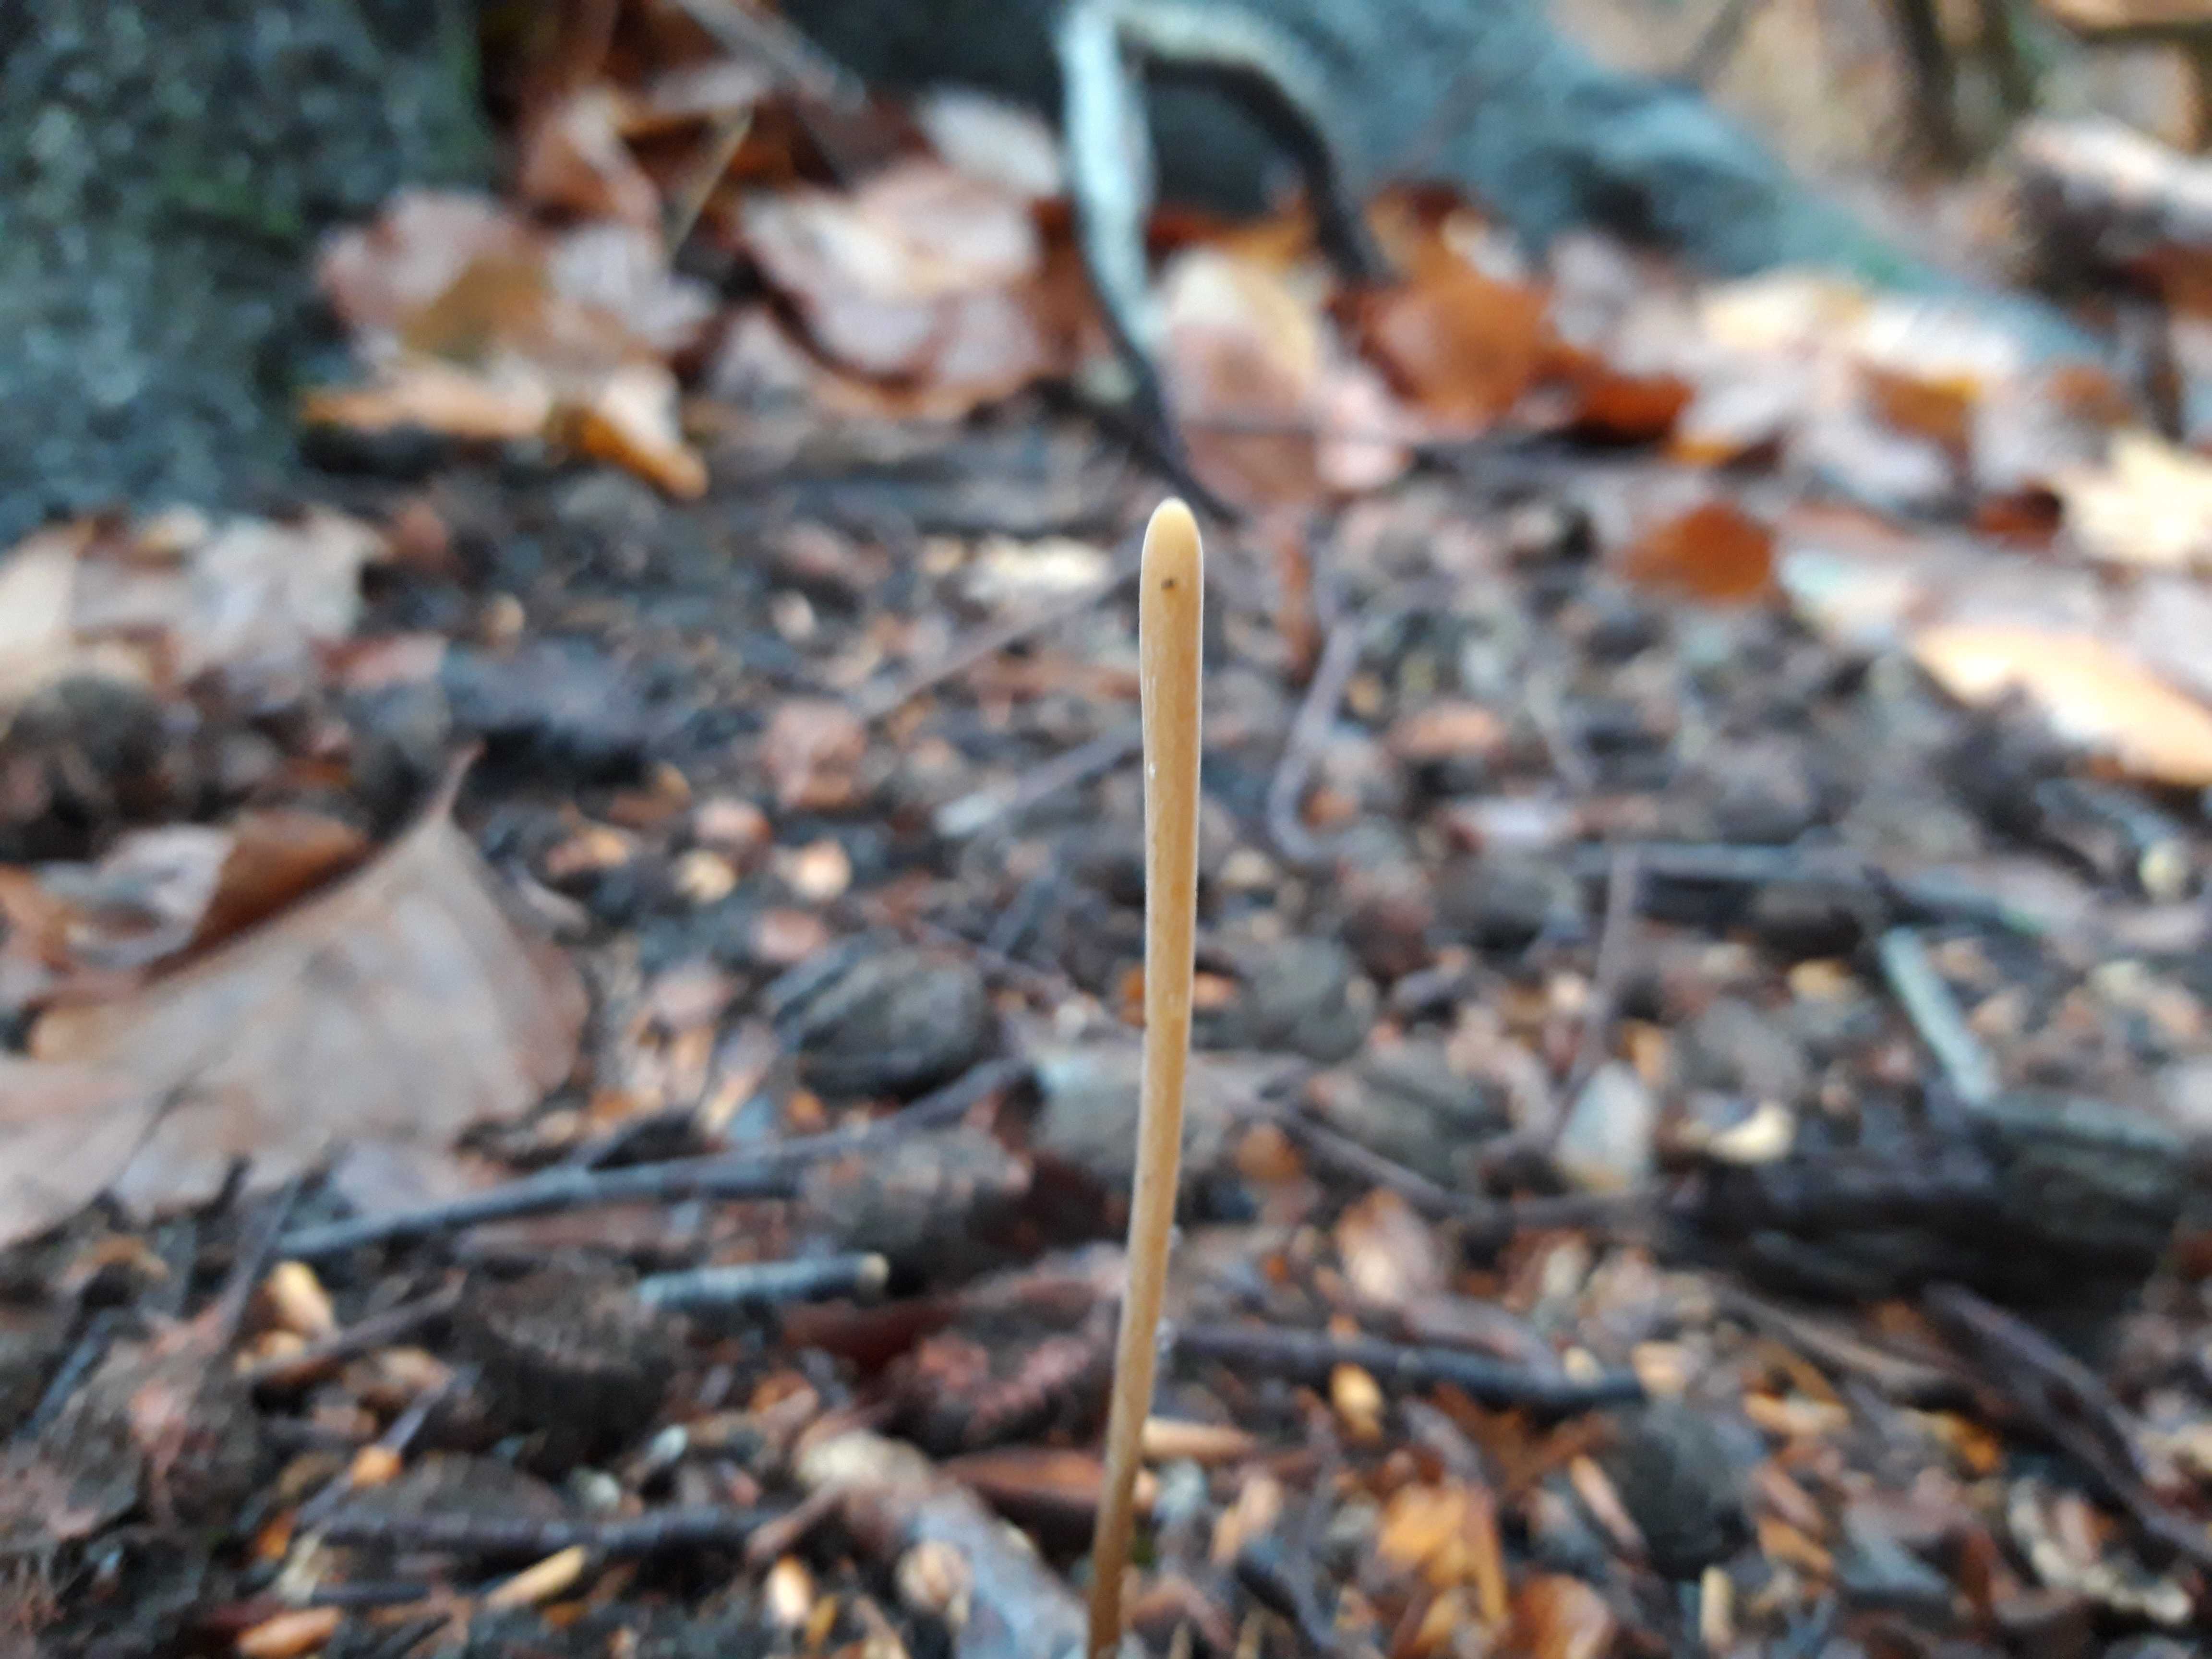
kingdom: Fungi
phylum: Basidiomycota
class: Agaricomycetes
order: Agaricales
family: Typhulaceae
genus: Typhula
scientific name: Typhula fistulosa
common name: pibet rørkølle
